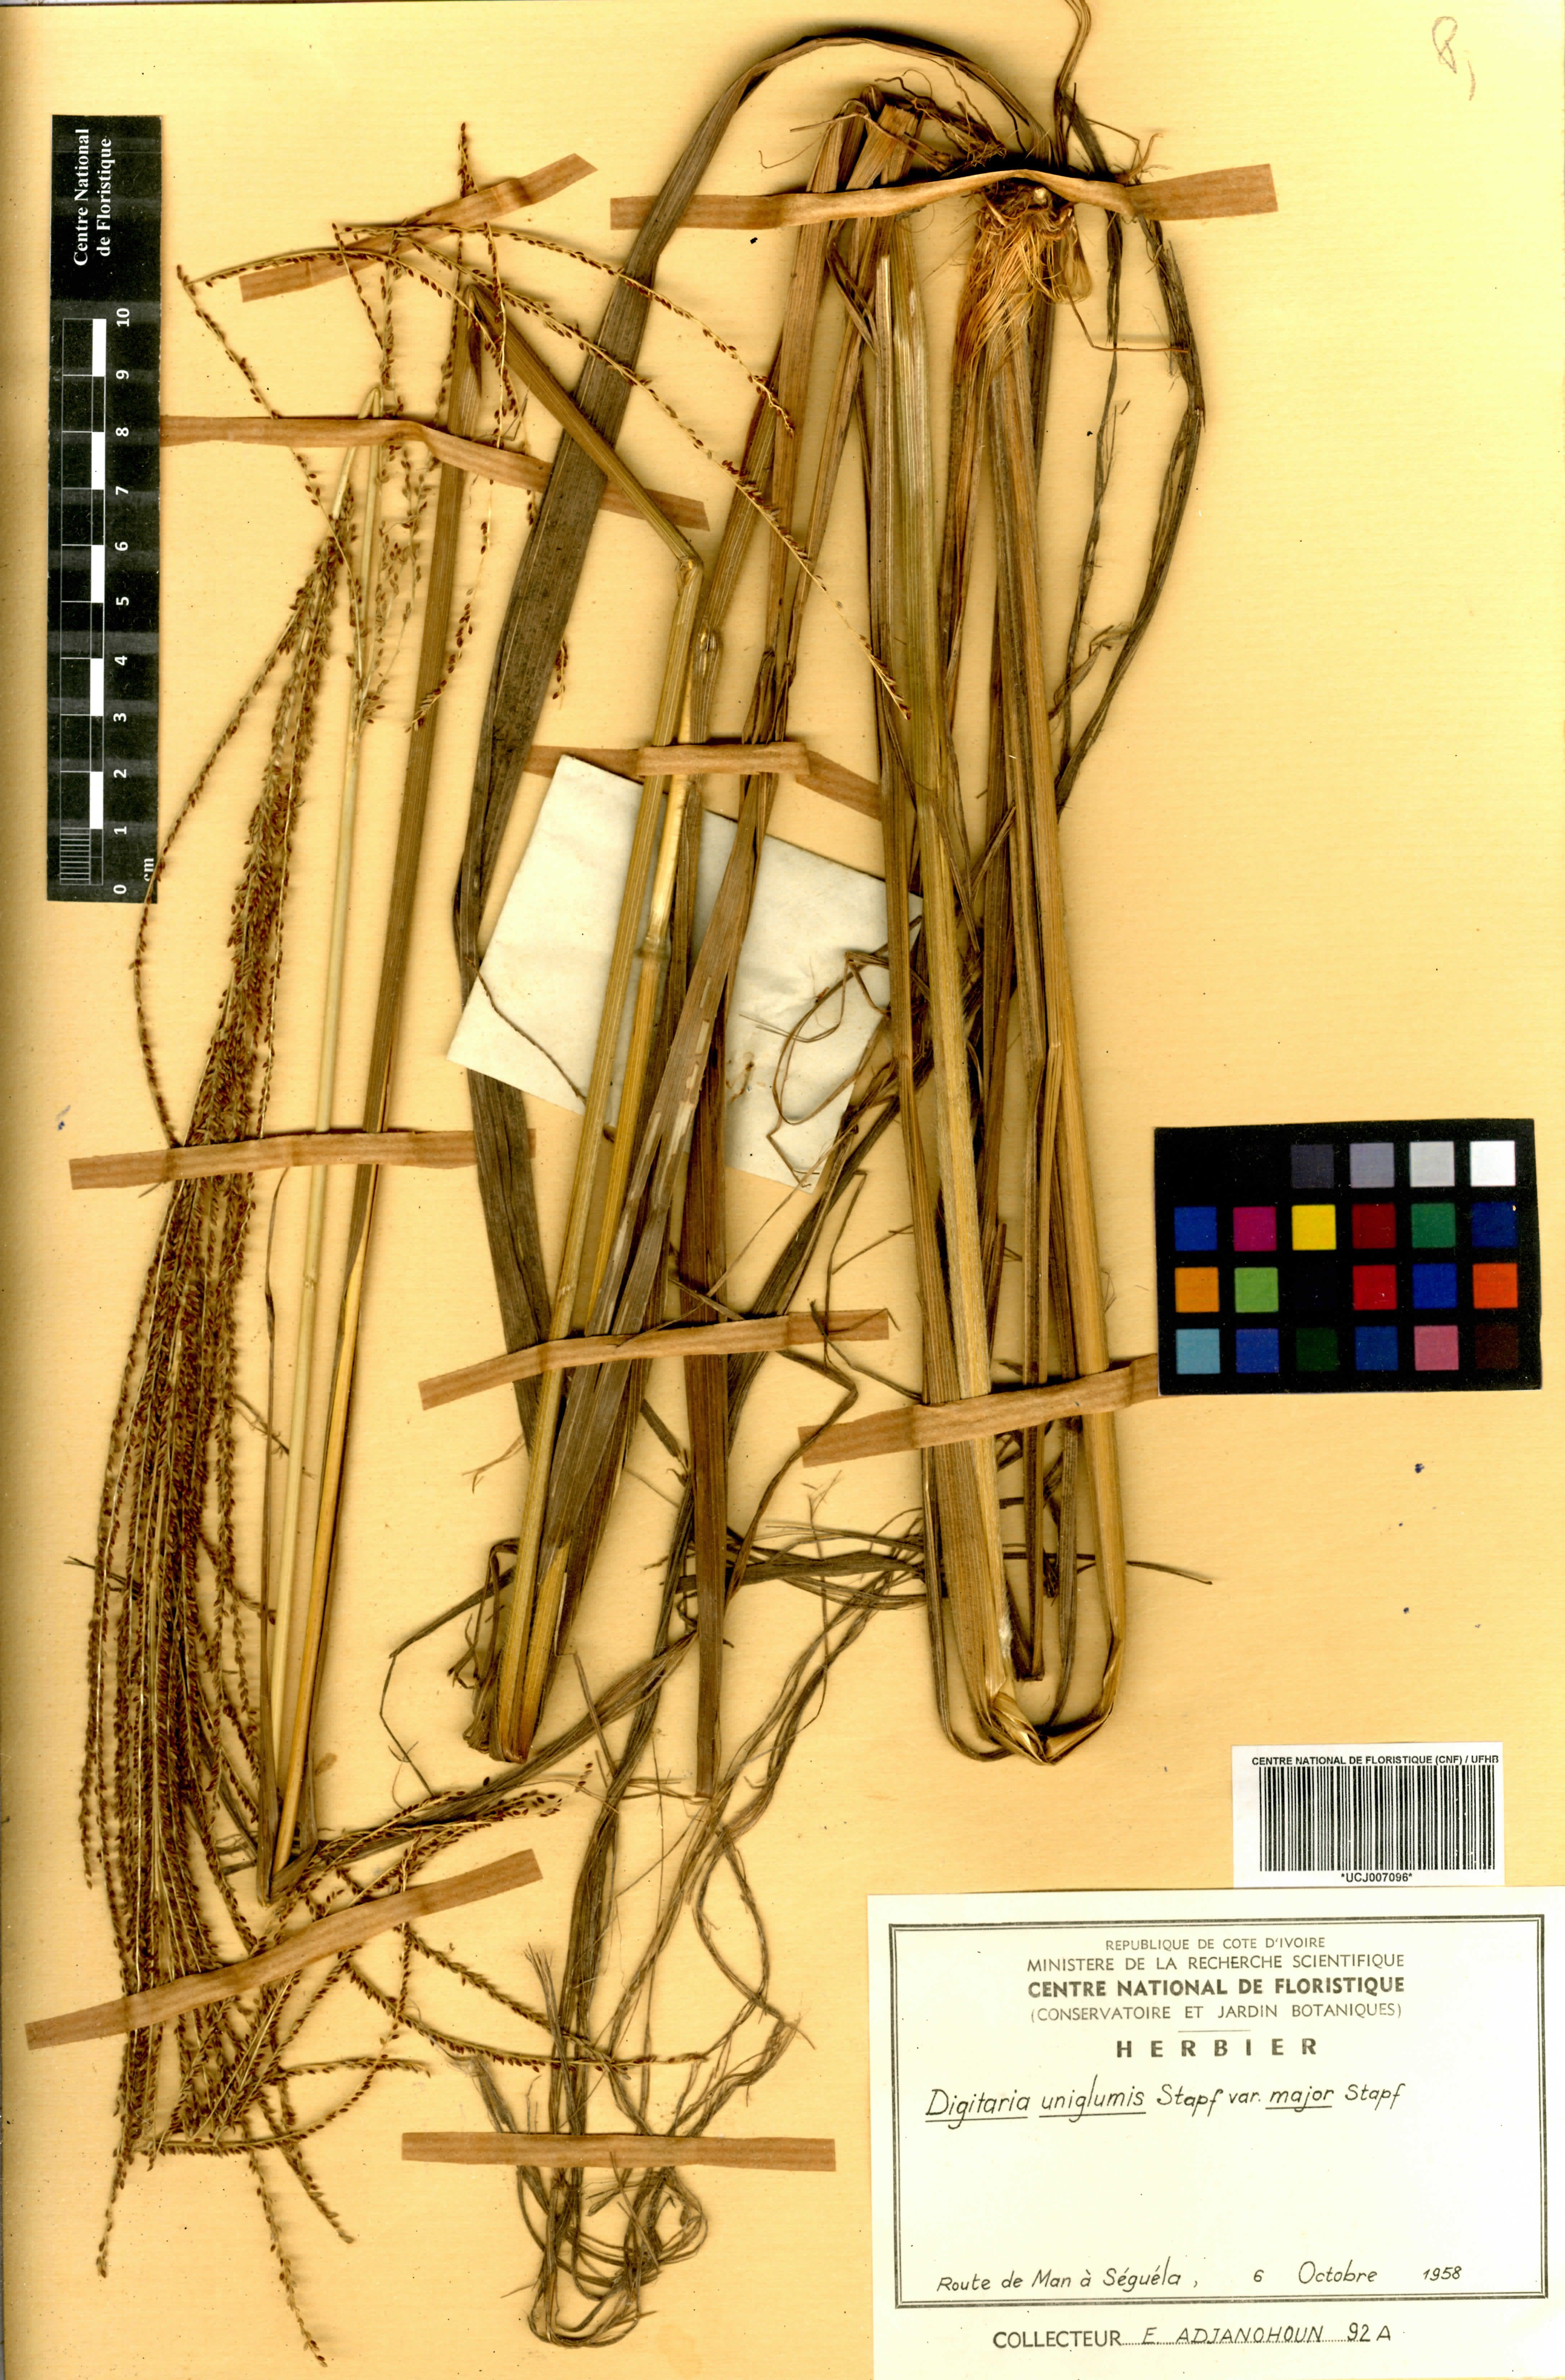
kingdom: Plantae
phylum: Tracheophyta
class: Liliopsida
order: Poales
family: Poaceae
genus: Digitaria
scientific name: Digitaria diagonalis
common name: Brown-seed finger grass
